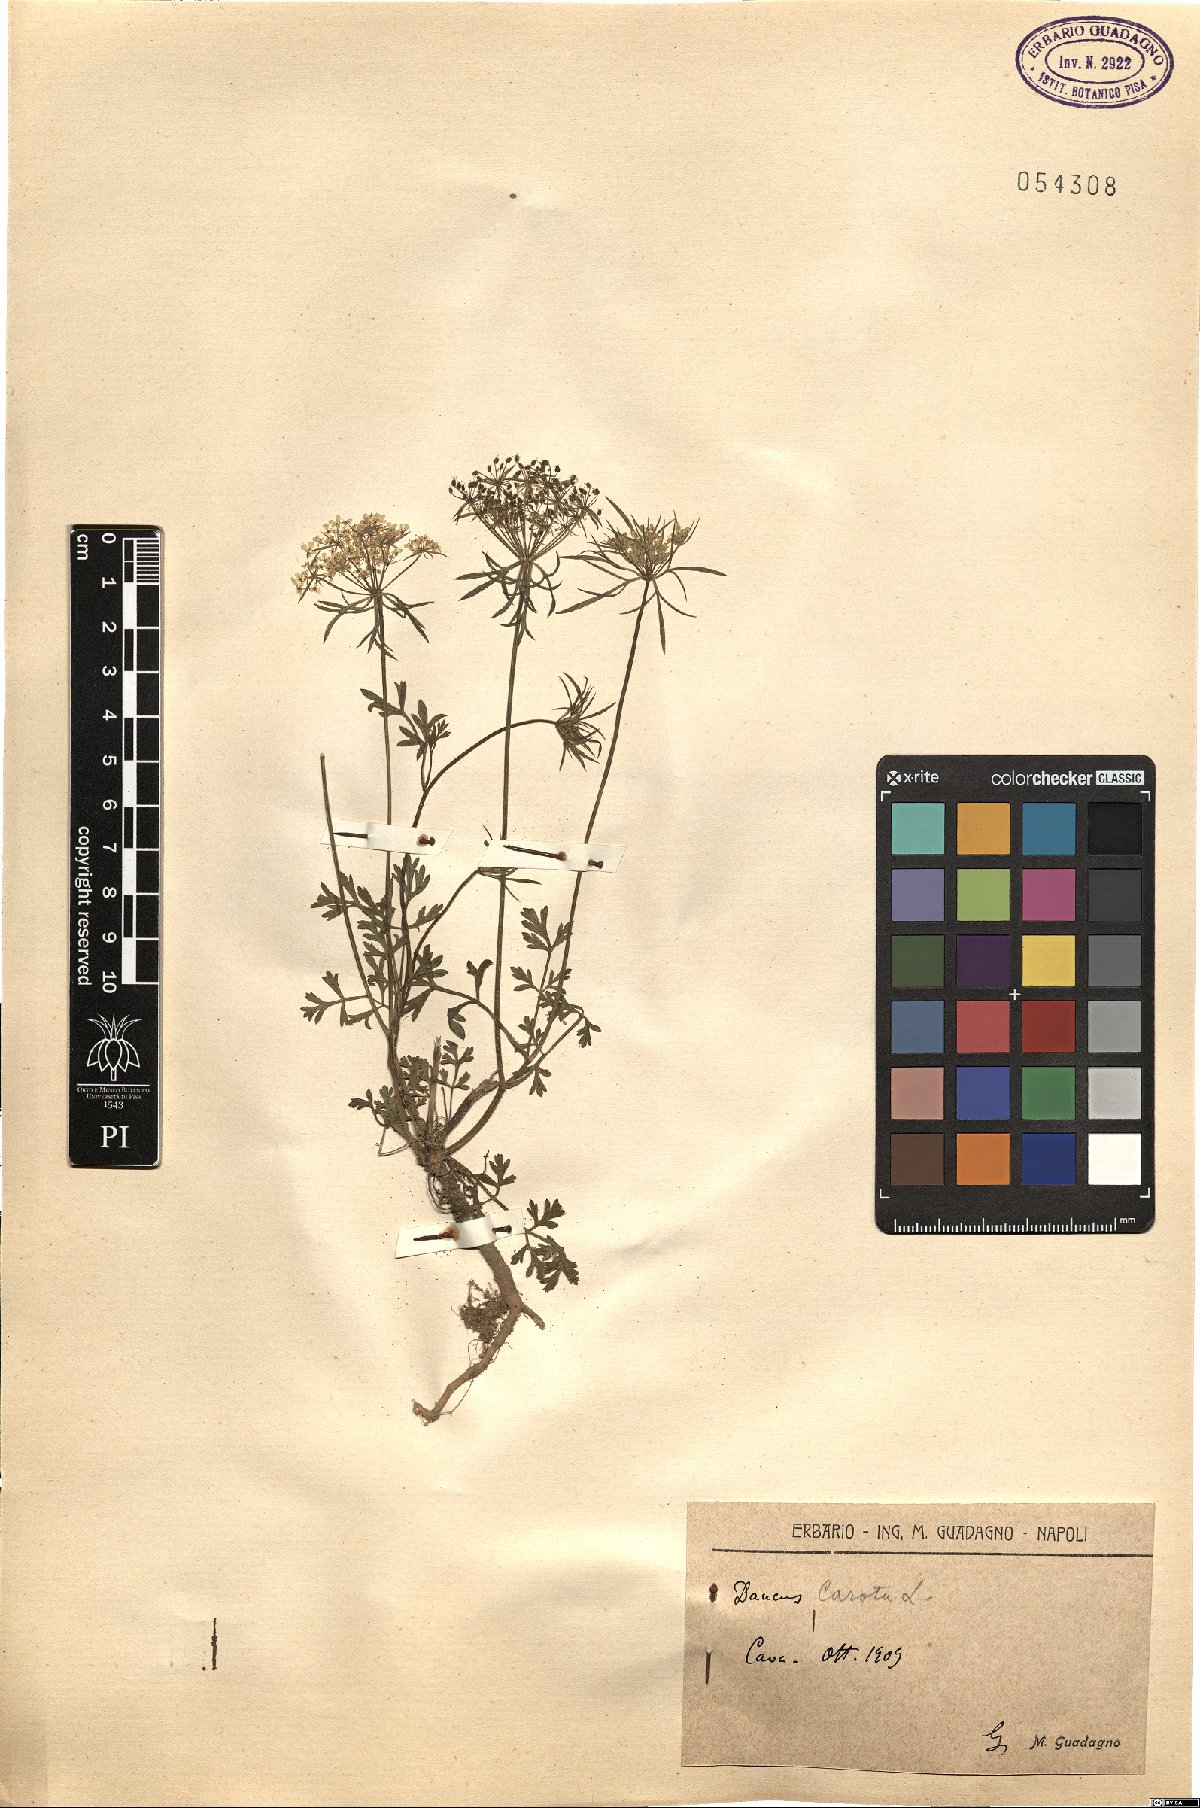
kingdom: Plantae
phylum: Tracheophyta
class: Magnoliopsida
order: Apiales
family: Apiaceae
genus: Daucus
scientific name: Daucus carota
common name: Wild carrot
